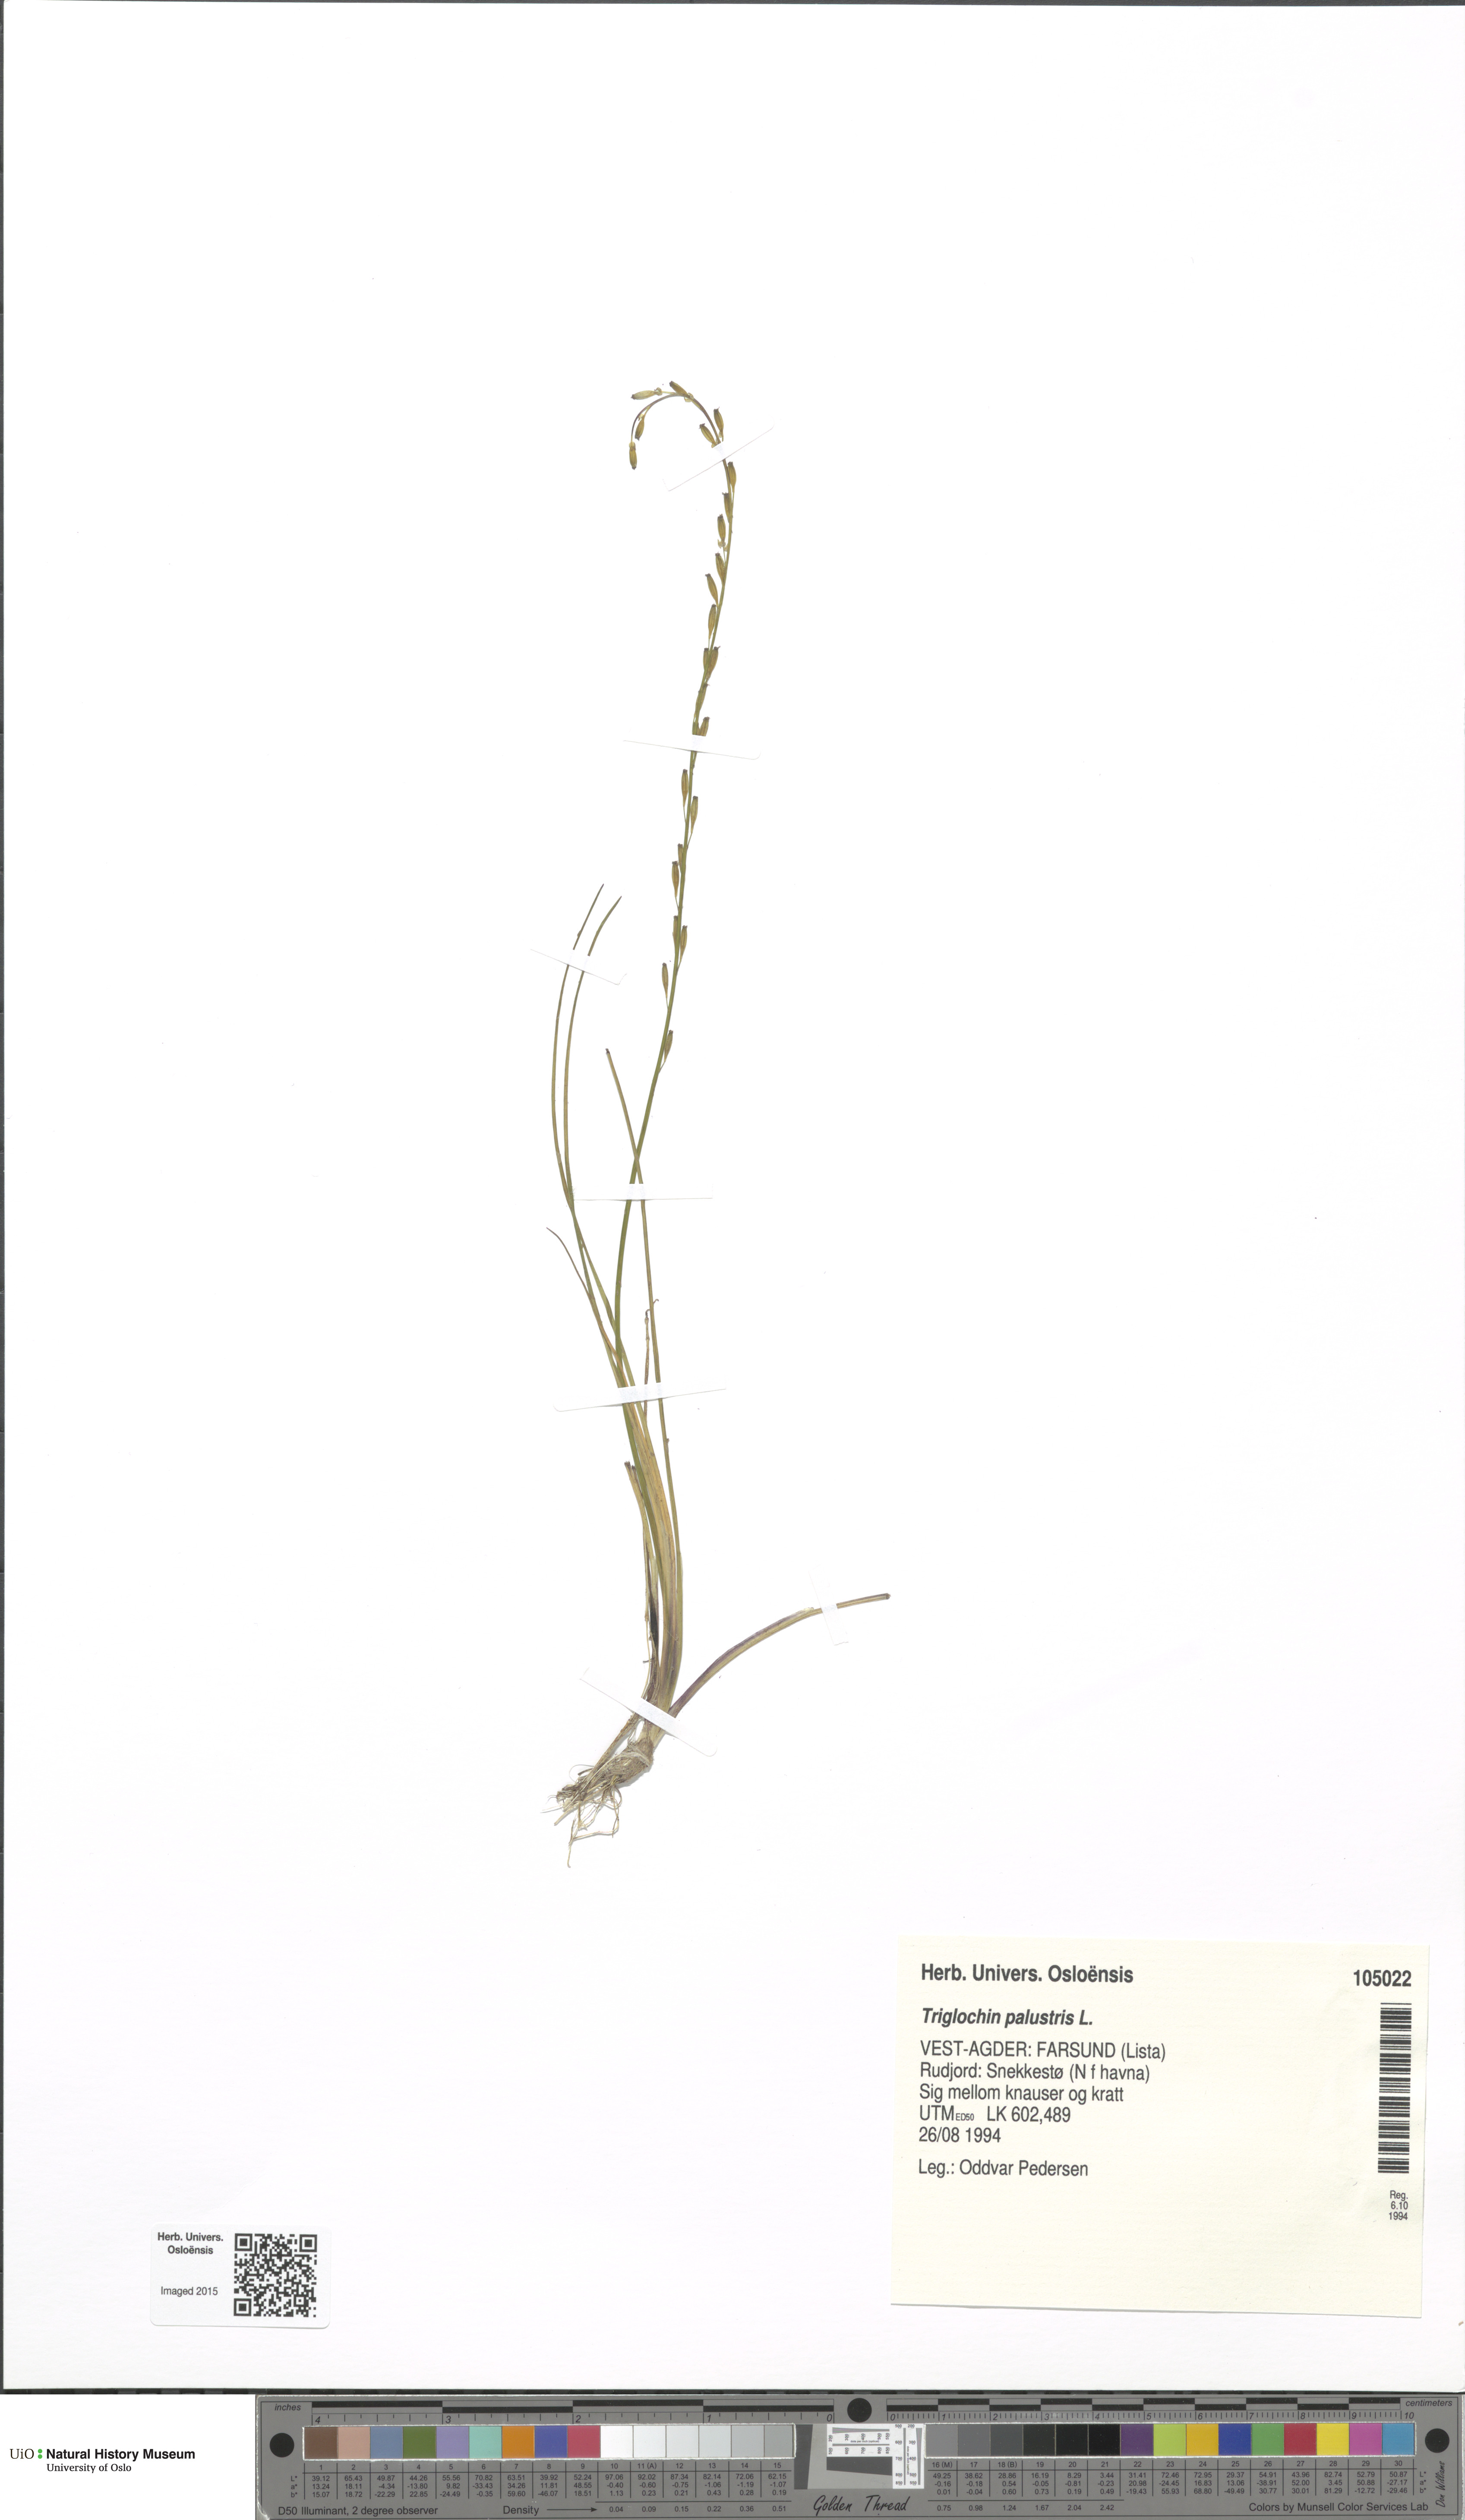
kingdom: Plantae
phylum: Tracheophyta
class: Liliopsida
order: Alismatales
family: Juncaginaceae
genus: Triglochin
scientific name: Triglochin palustris
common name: Marsh arrowgrass
